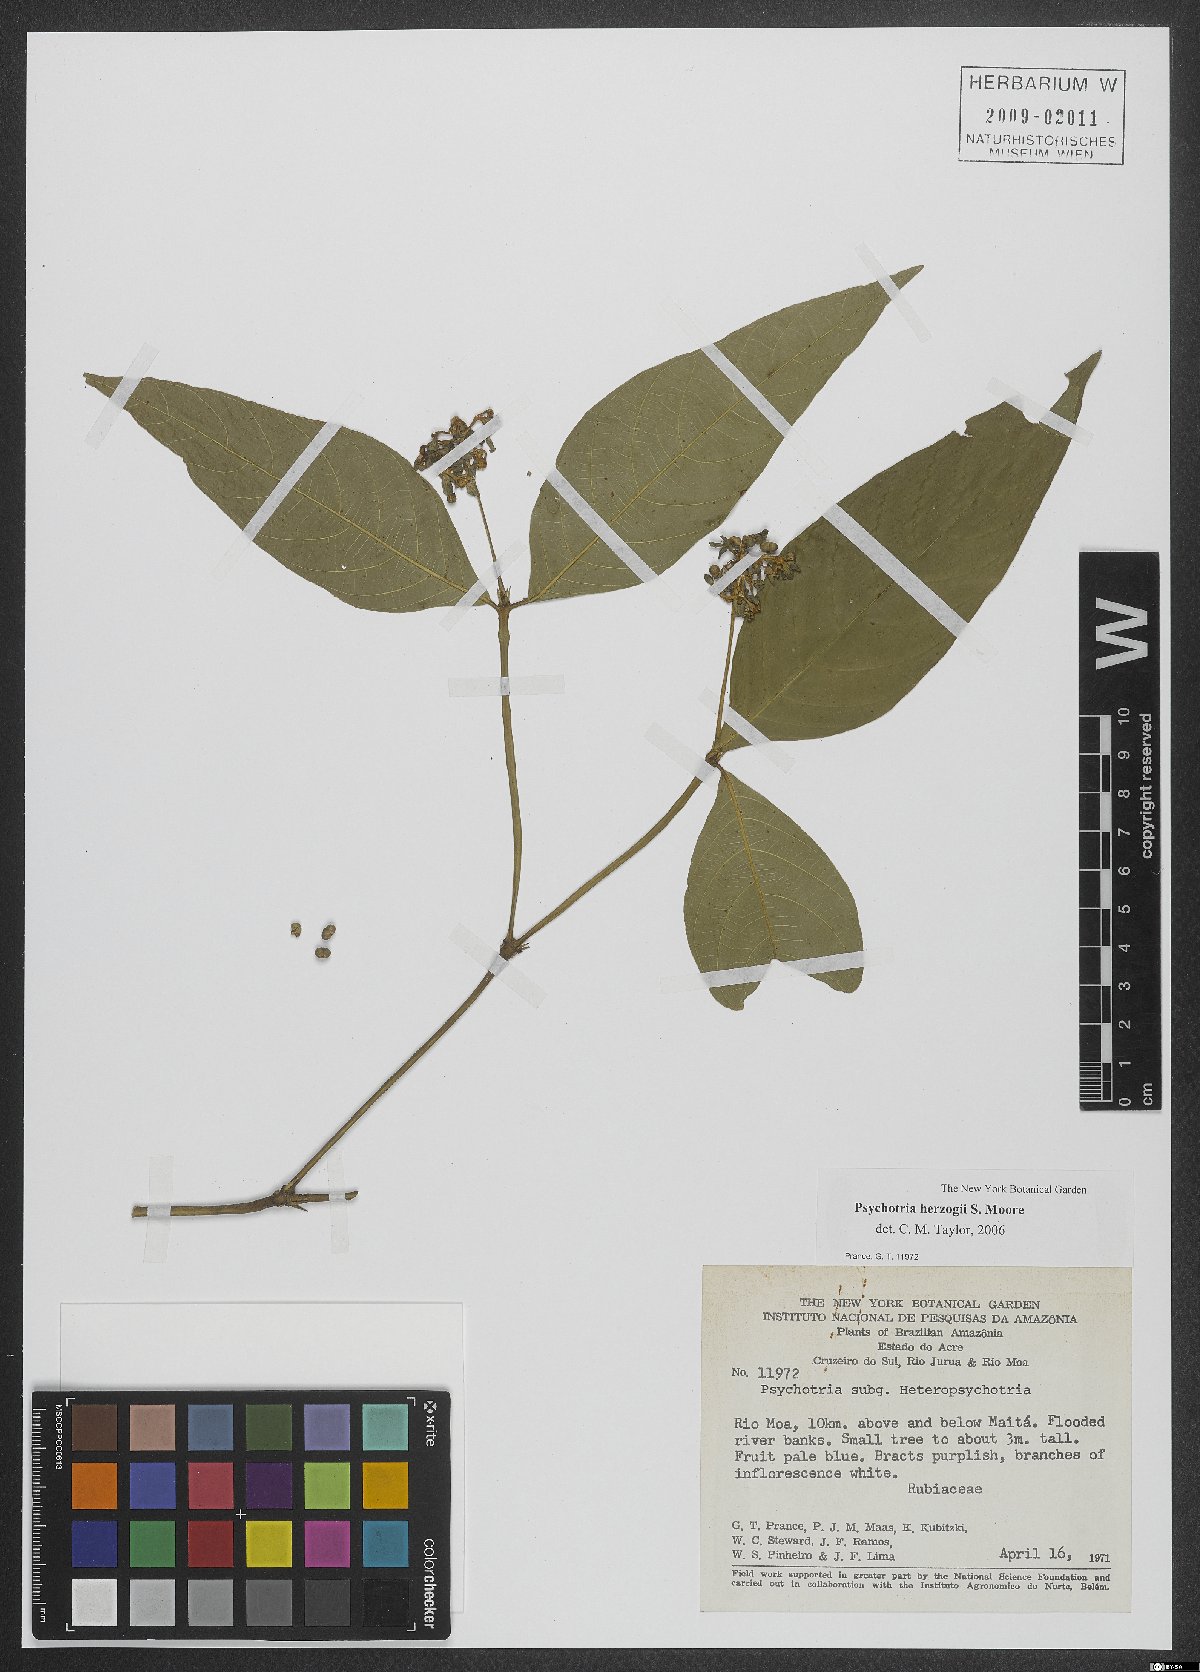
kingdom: Plantae
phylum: Tracheophyta
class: Magnoliopsida
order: Gentianales
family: Rubiaceae
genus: Psychotria
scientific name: Psychotria herzogii
